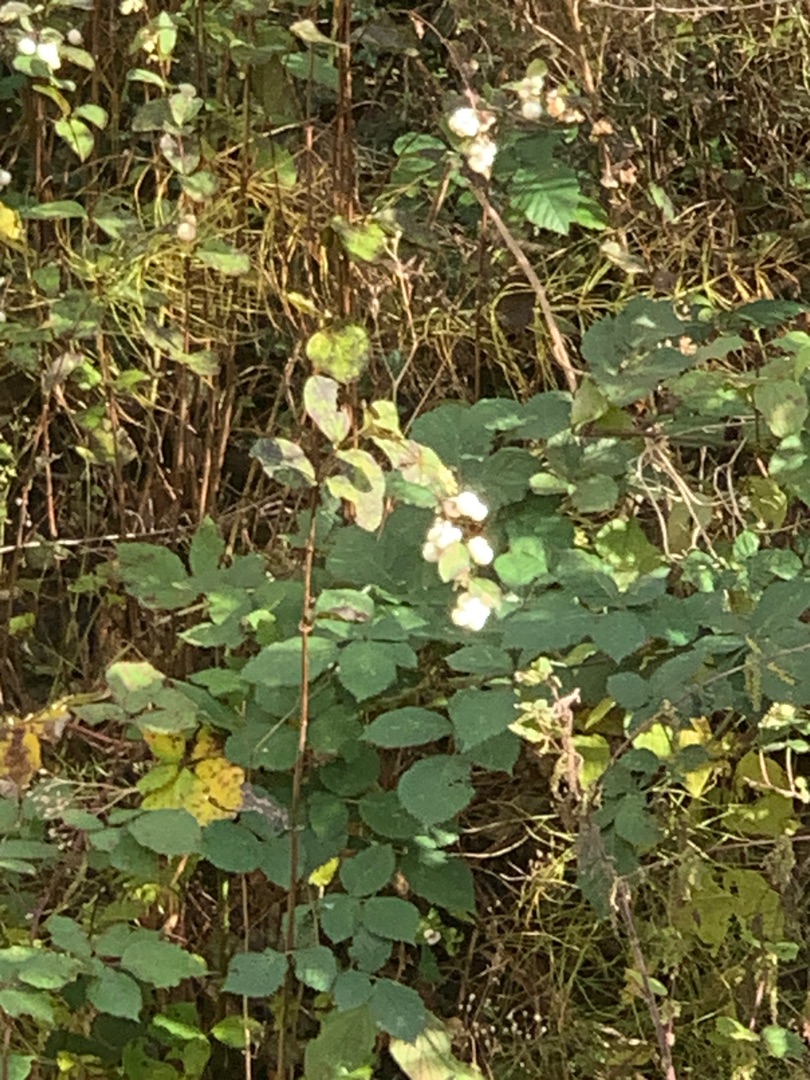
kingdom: Plantae
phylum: Tracheophyta
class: Magnoliopsida
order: Dipsacales
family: Caprifoliaceae
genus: Symphoricarpos
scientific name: Symphoricarpos albus
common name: Almindelig snebær
